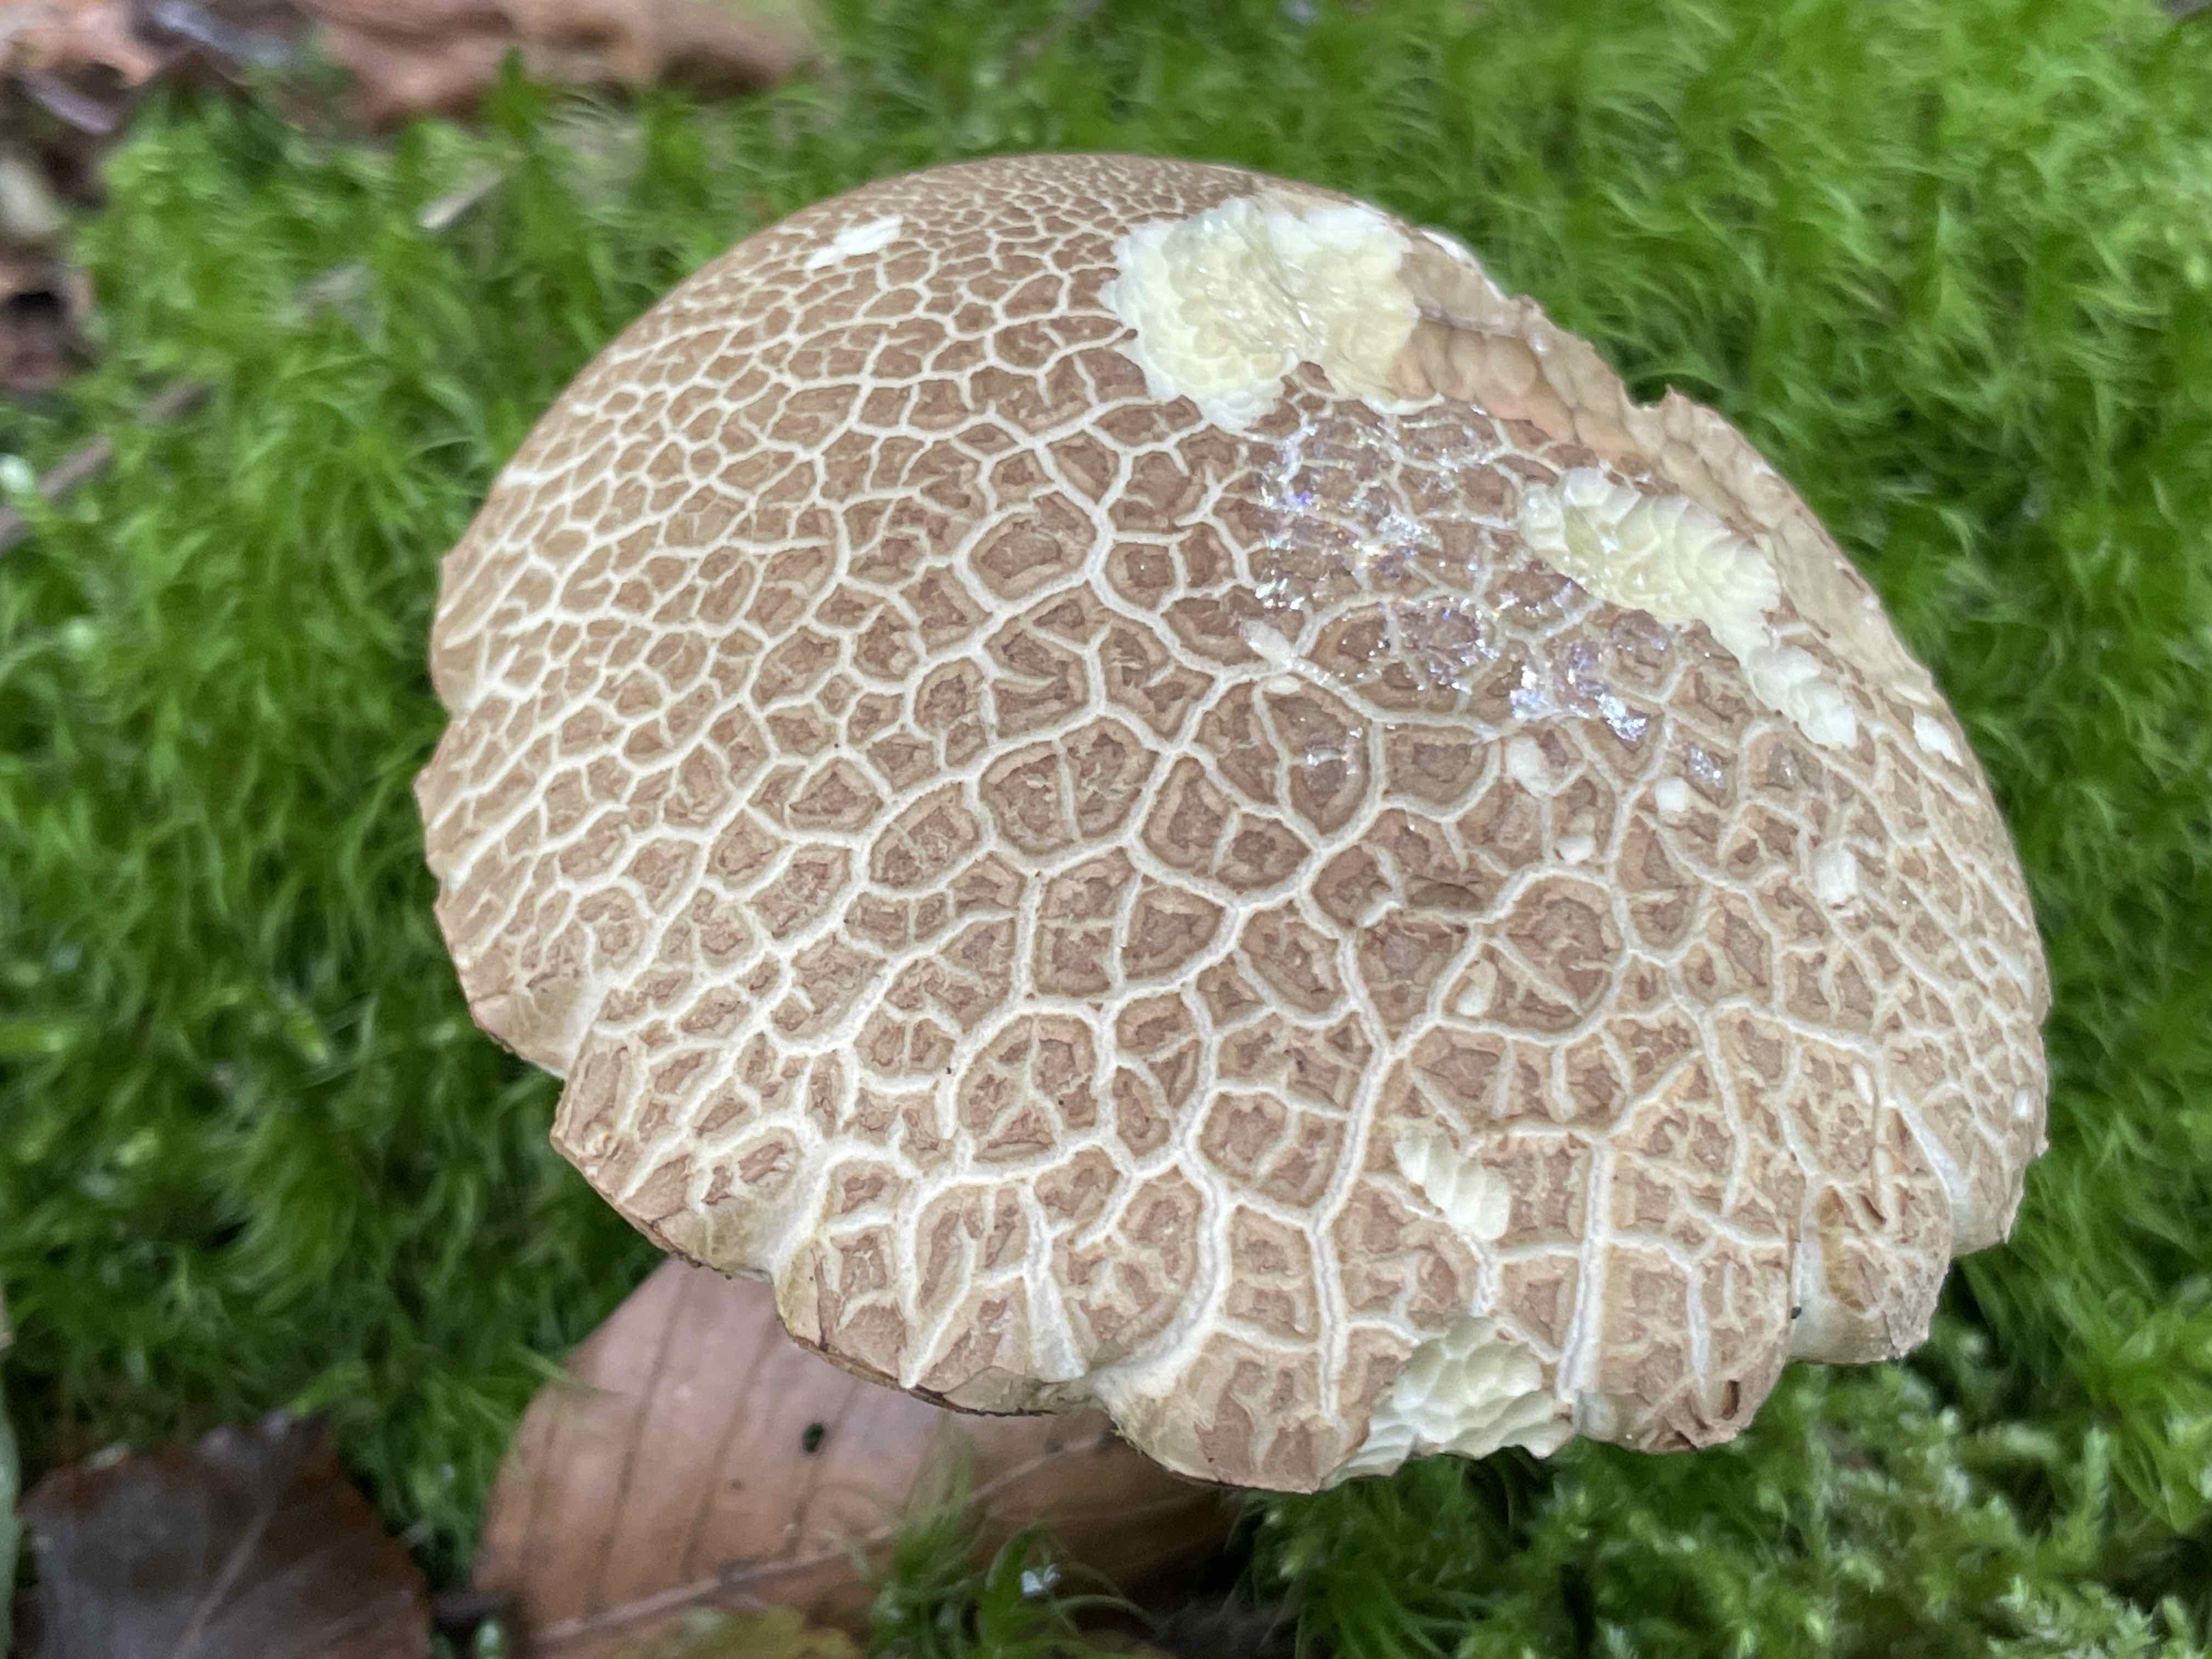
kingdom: Fungi
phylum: Basidiomycota
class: Agaricomycetes
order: Boletales
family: Boletaceae
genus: Caloboletus
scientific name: Caloboletus calopus
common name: skønfodet rørhat
